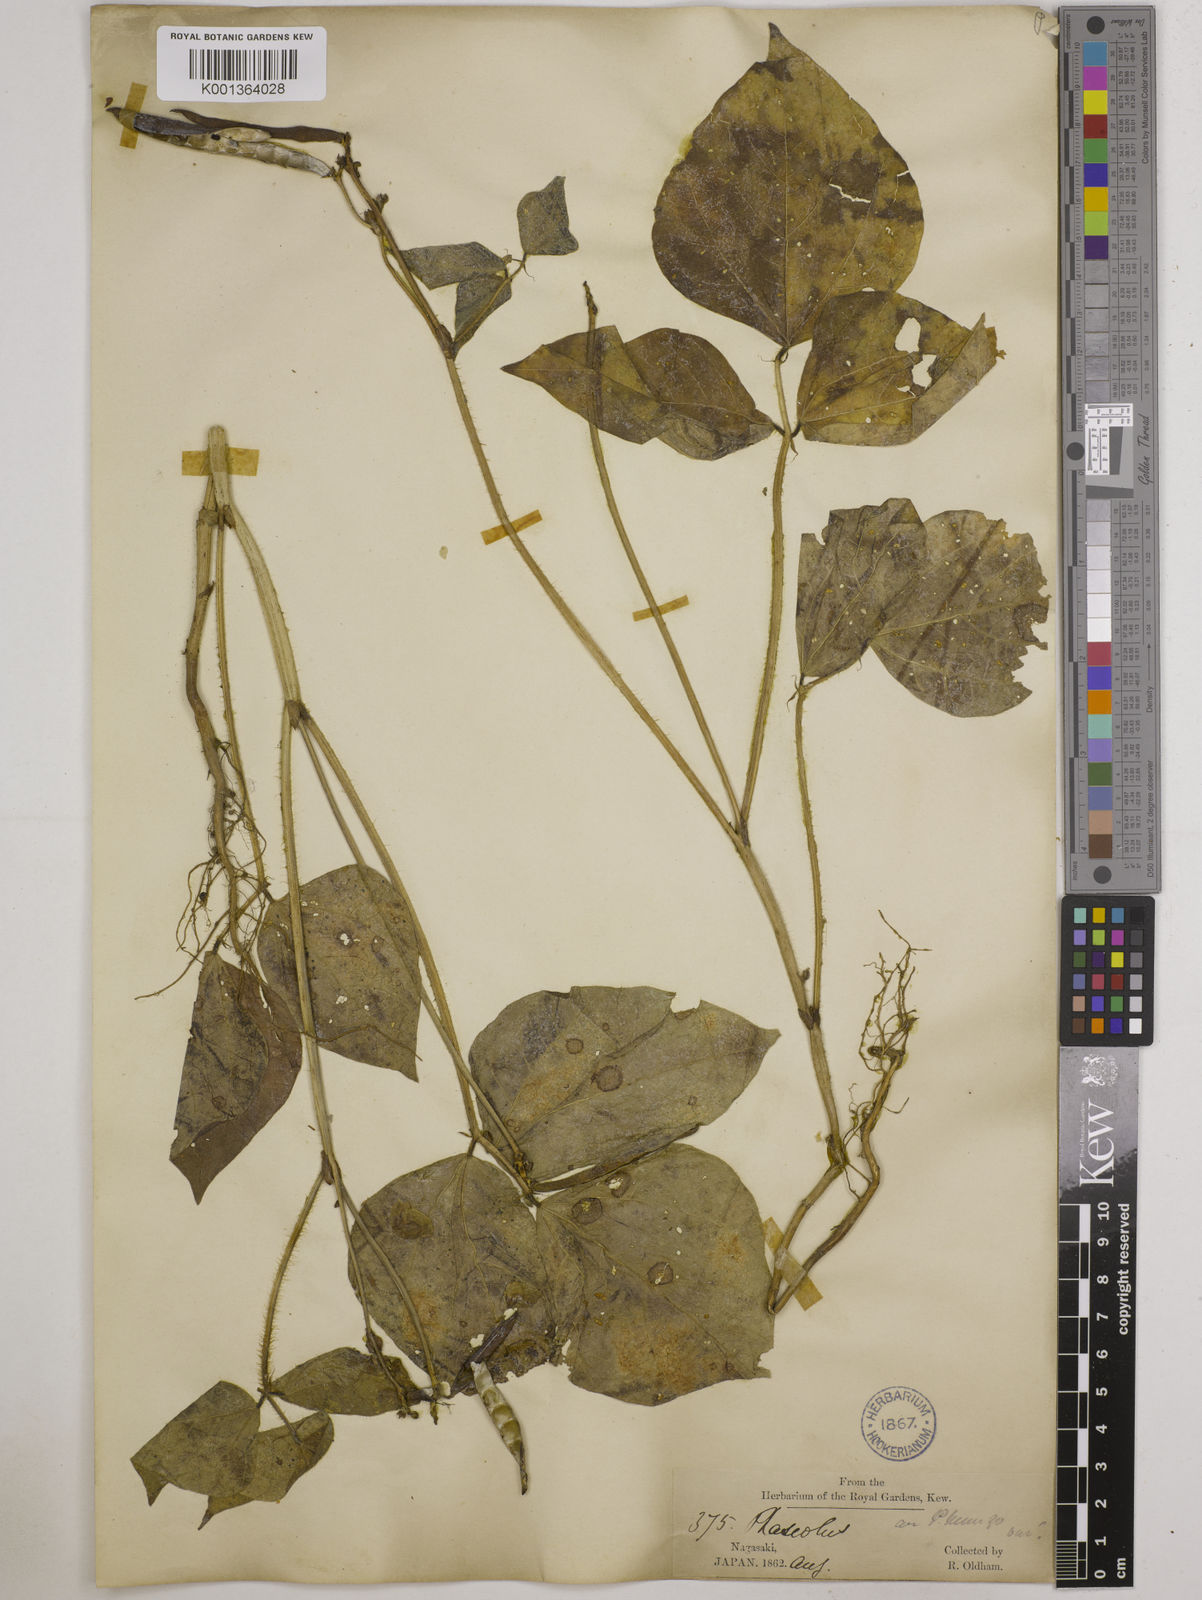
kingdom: Plantae
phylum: Tracheophyta
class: Magnoliopsida
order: Fabales
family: Fabaceae
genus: Vigna
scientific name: Vigna radiata
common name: Mung-bean
